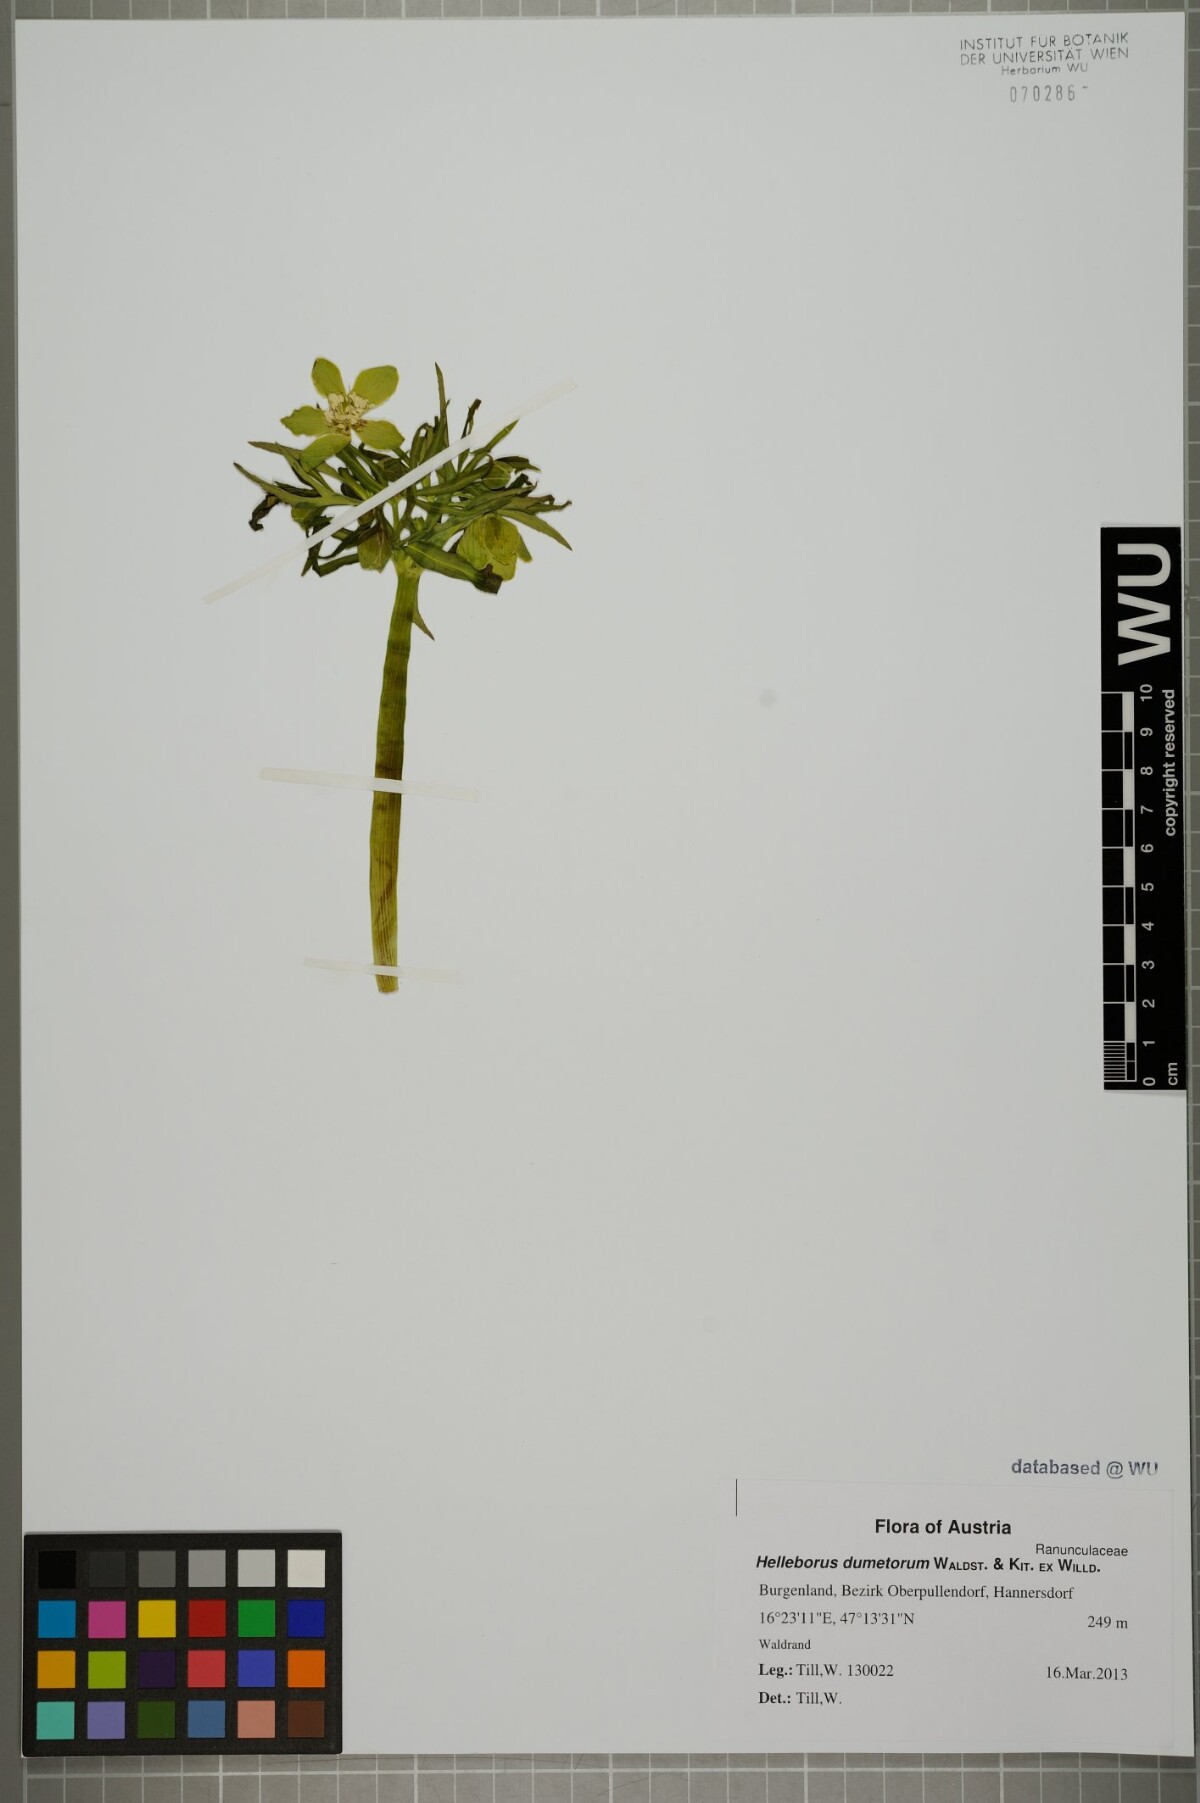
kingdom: Plantae
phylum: Tracheophyta
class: Magnoliopsida
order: Ranunculales
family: Ranunculaceae
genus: Helleborus
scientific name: Helleborus dumetorum
